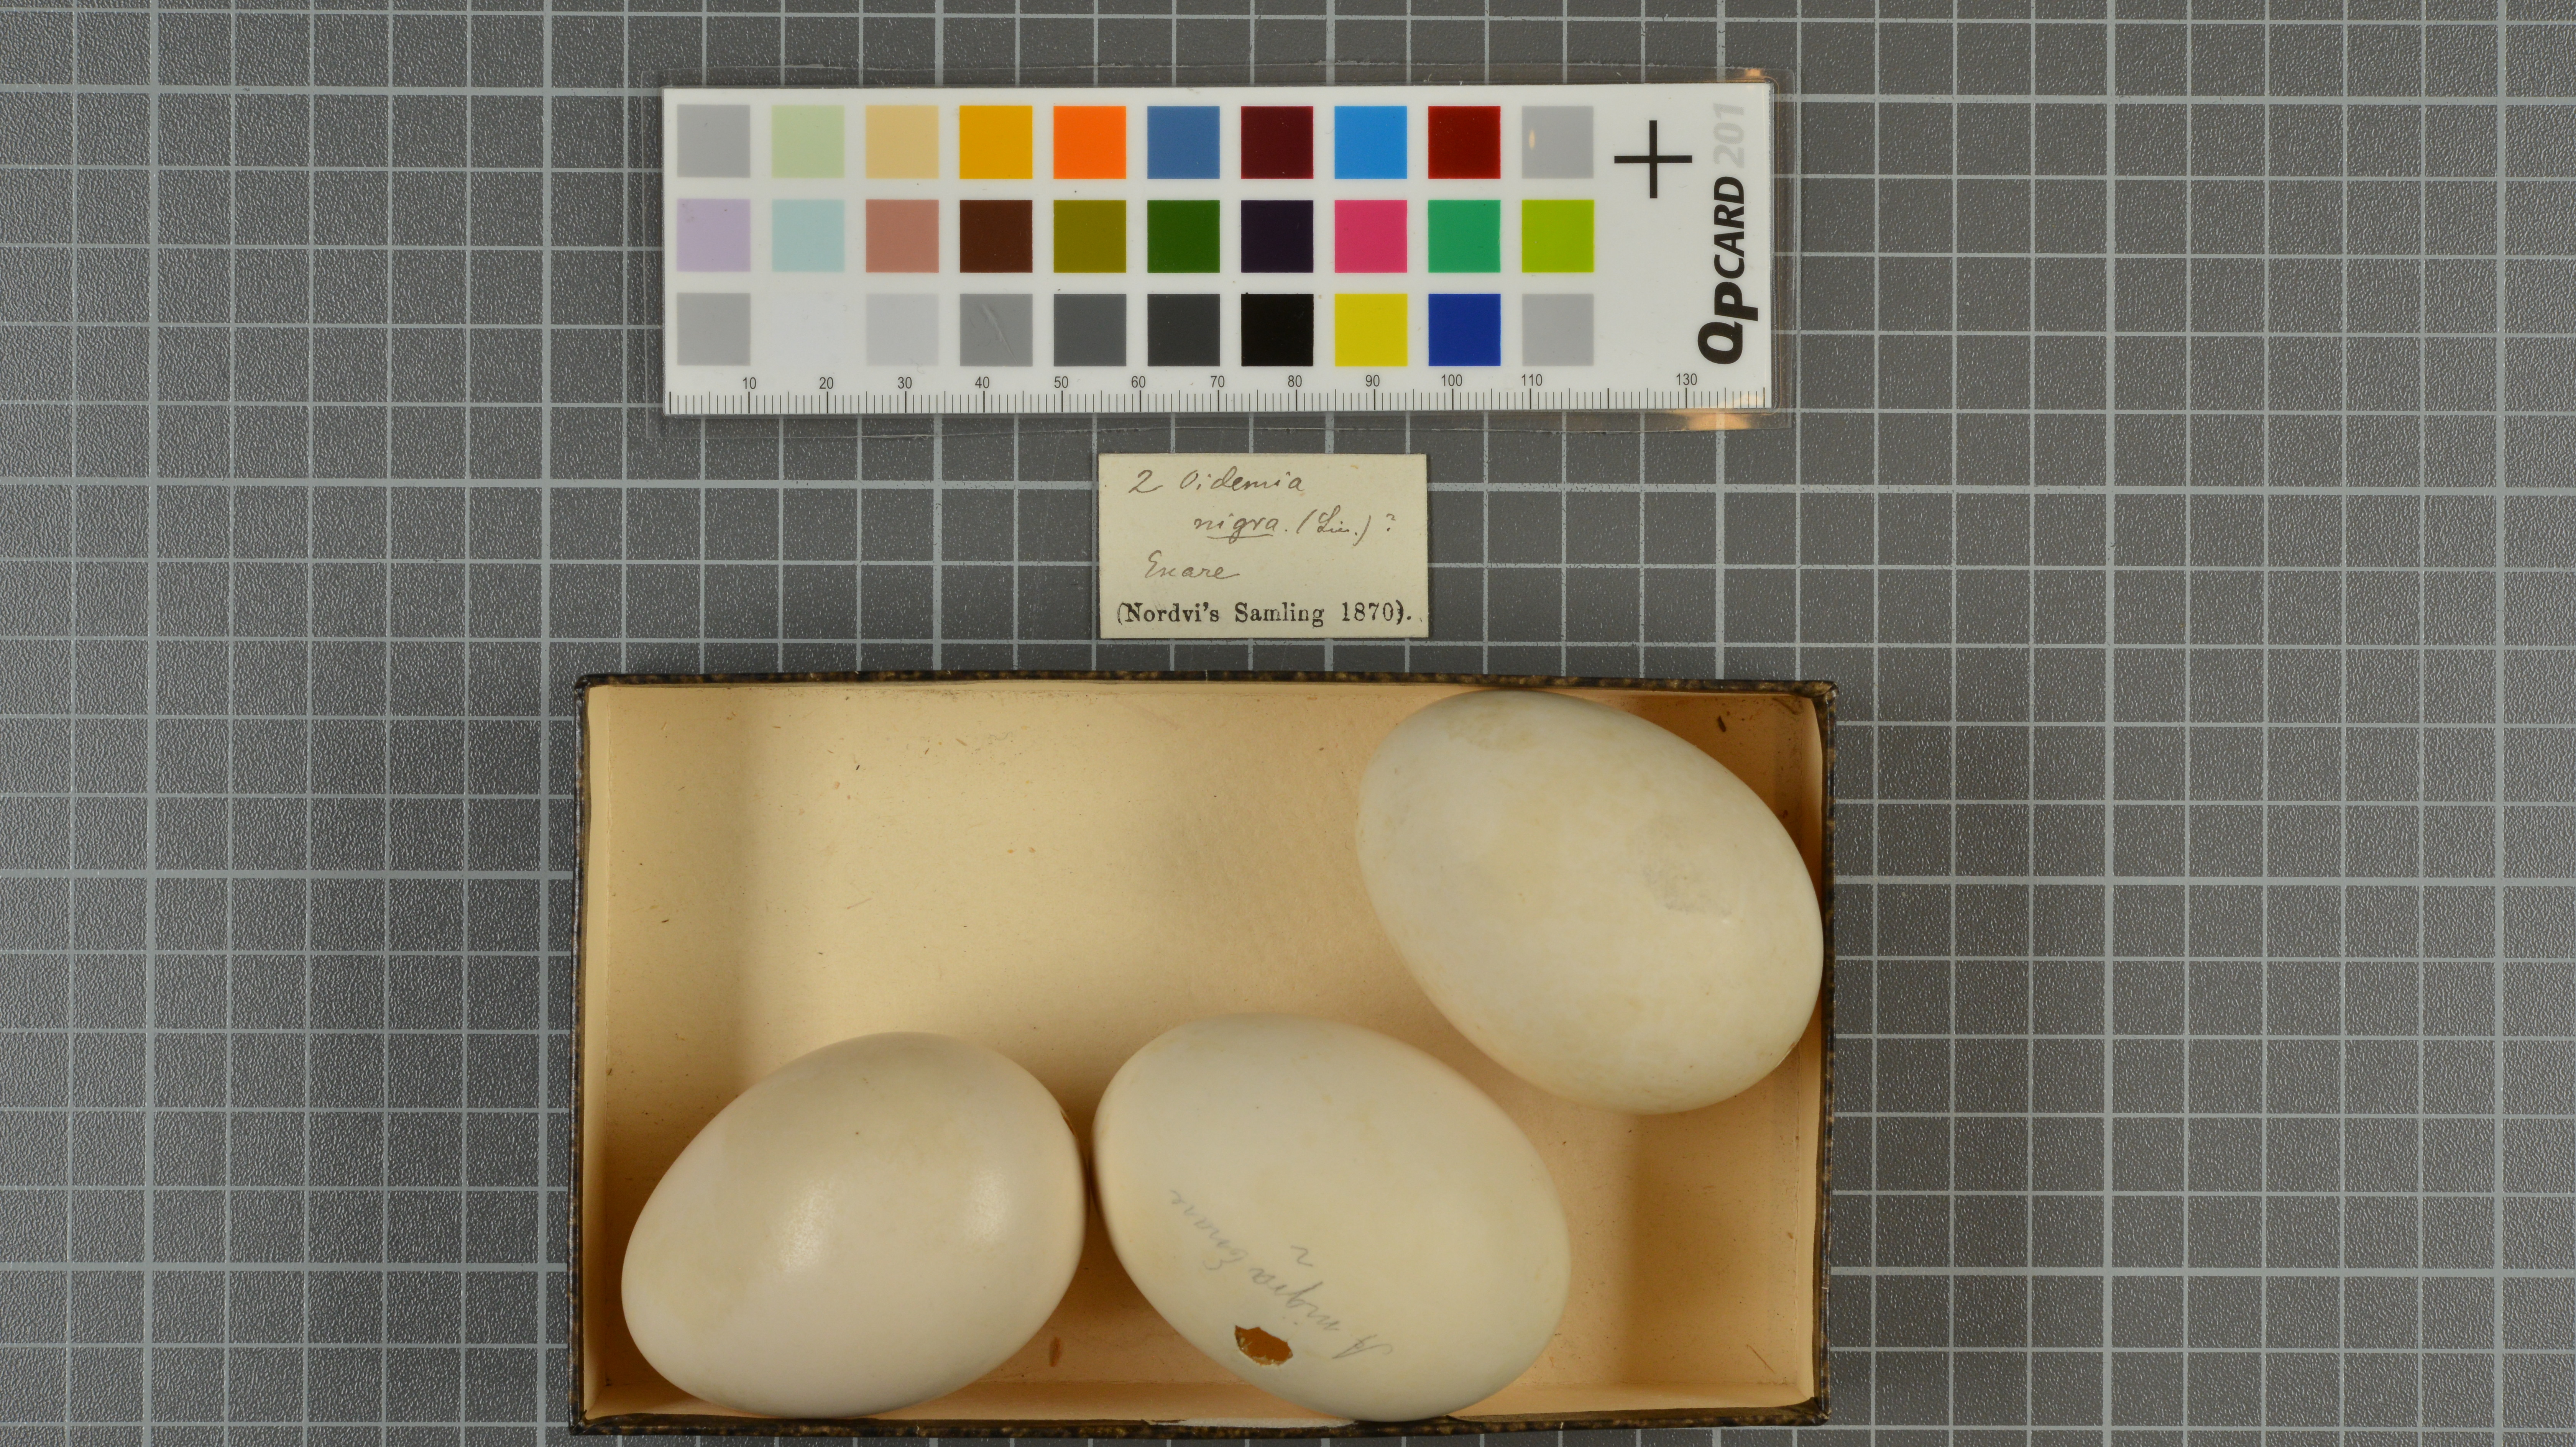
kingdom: Animalia
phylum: Chordata
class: Aves
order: Anseriformes
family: Anatidae
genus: Melanitta
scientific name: Melanitta nigra
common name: Common scoter
